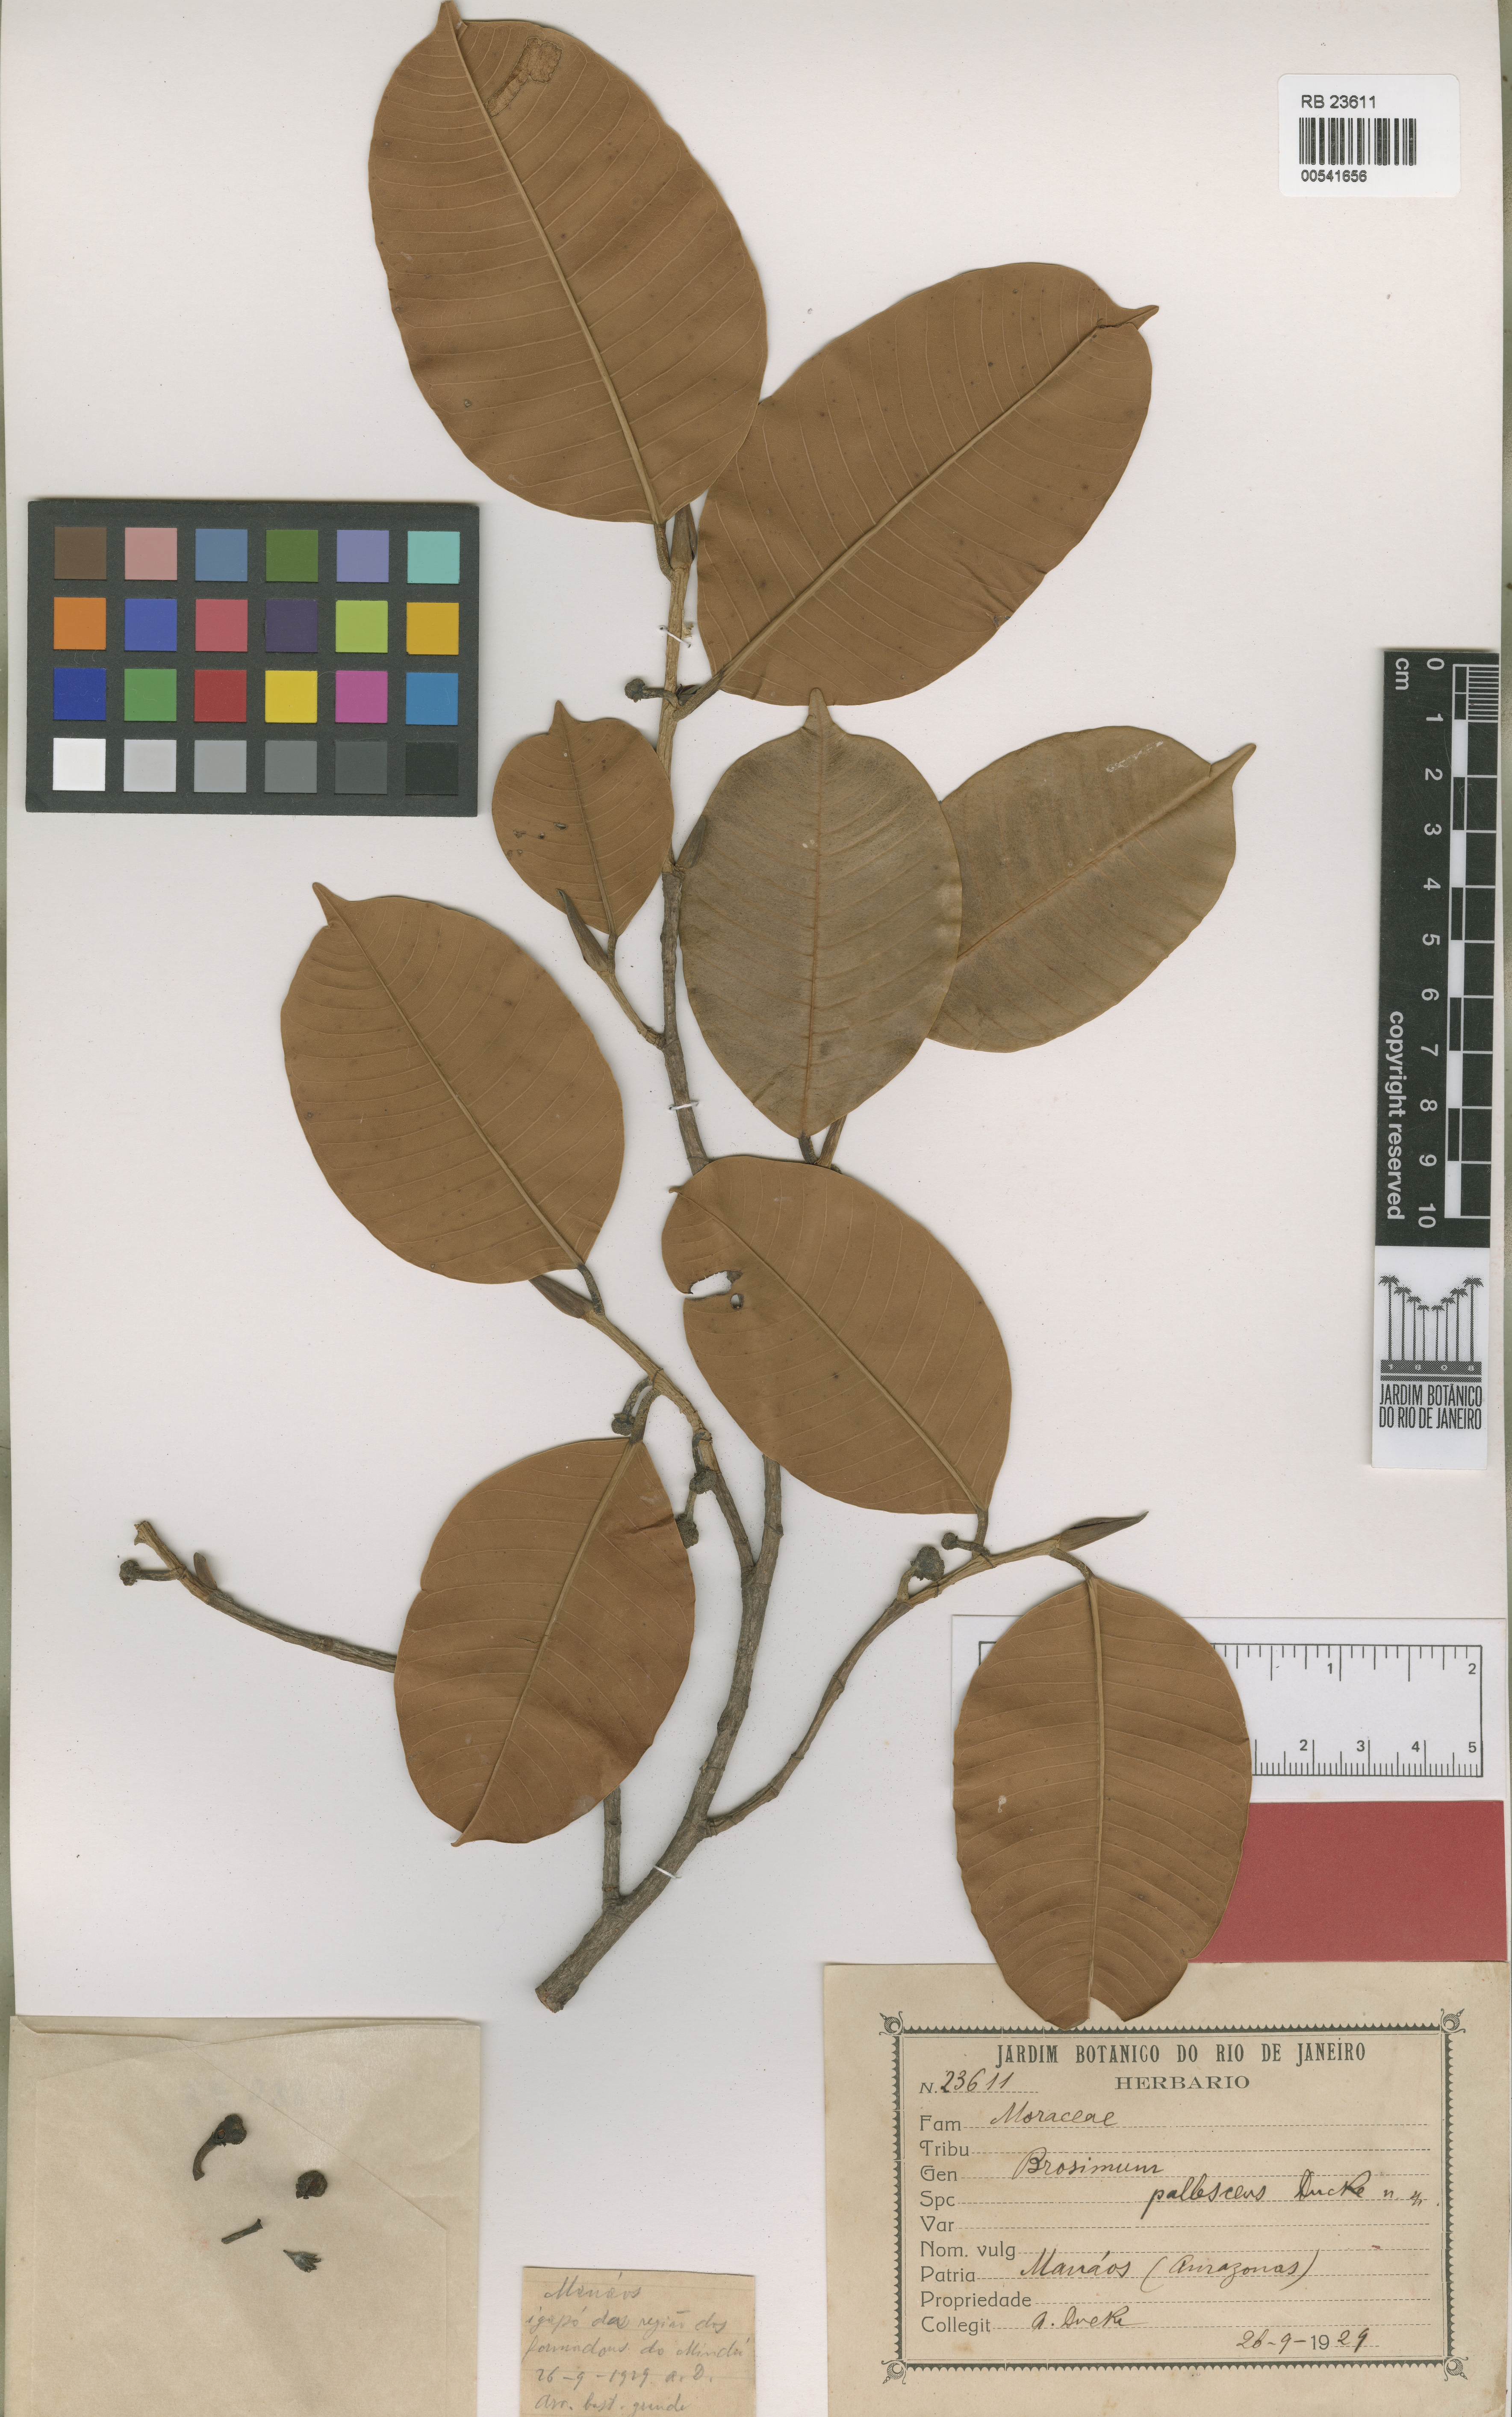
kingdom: Plantae
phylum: Tracheophyta
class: Magnoliopsida
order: Rosales
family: Moraceae
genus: Brosimum
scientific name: Brosimum utile
